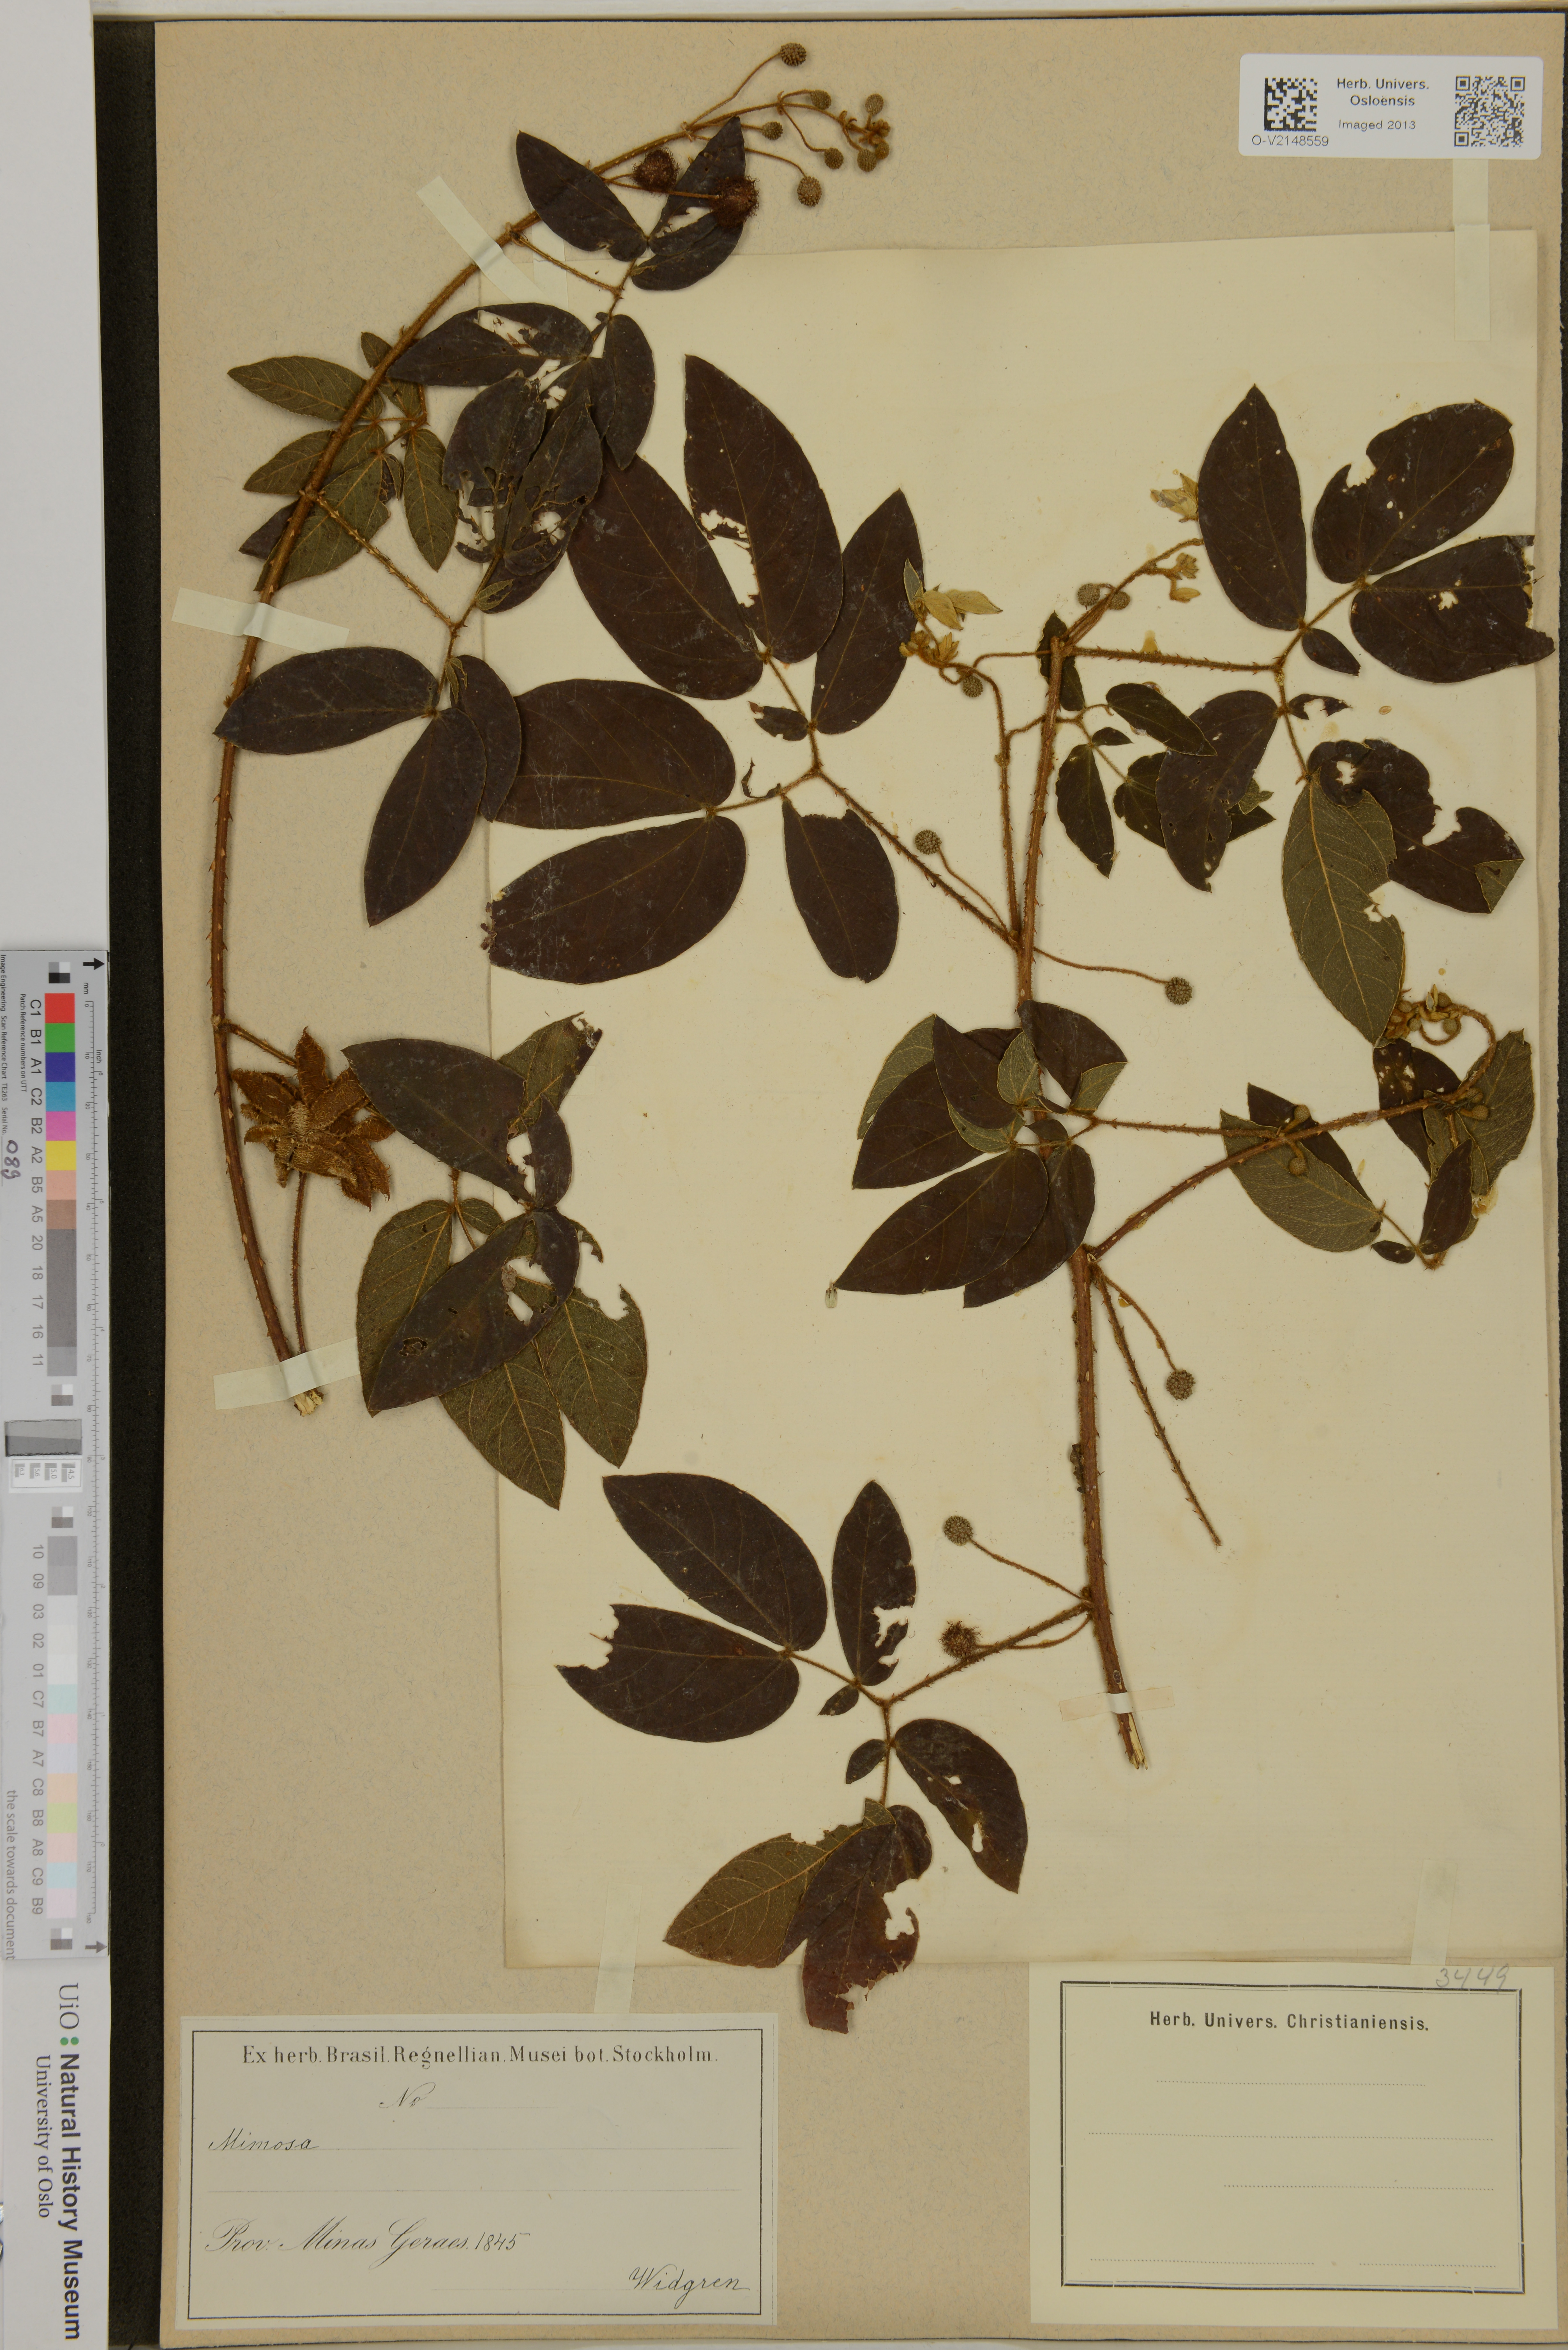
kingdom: Plantae
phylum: Tracheophyta
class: Magnoliopsida
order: Fabales
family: Fabaceae
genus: Mimosa
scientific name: Mimosa
